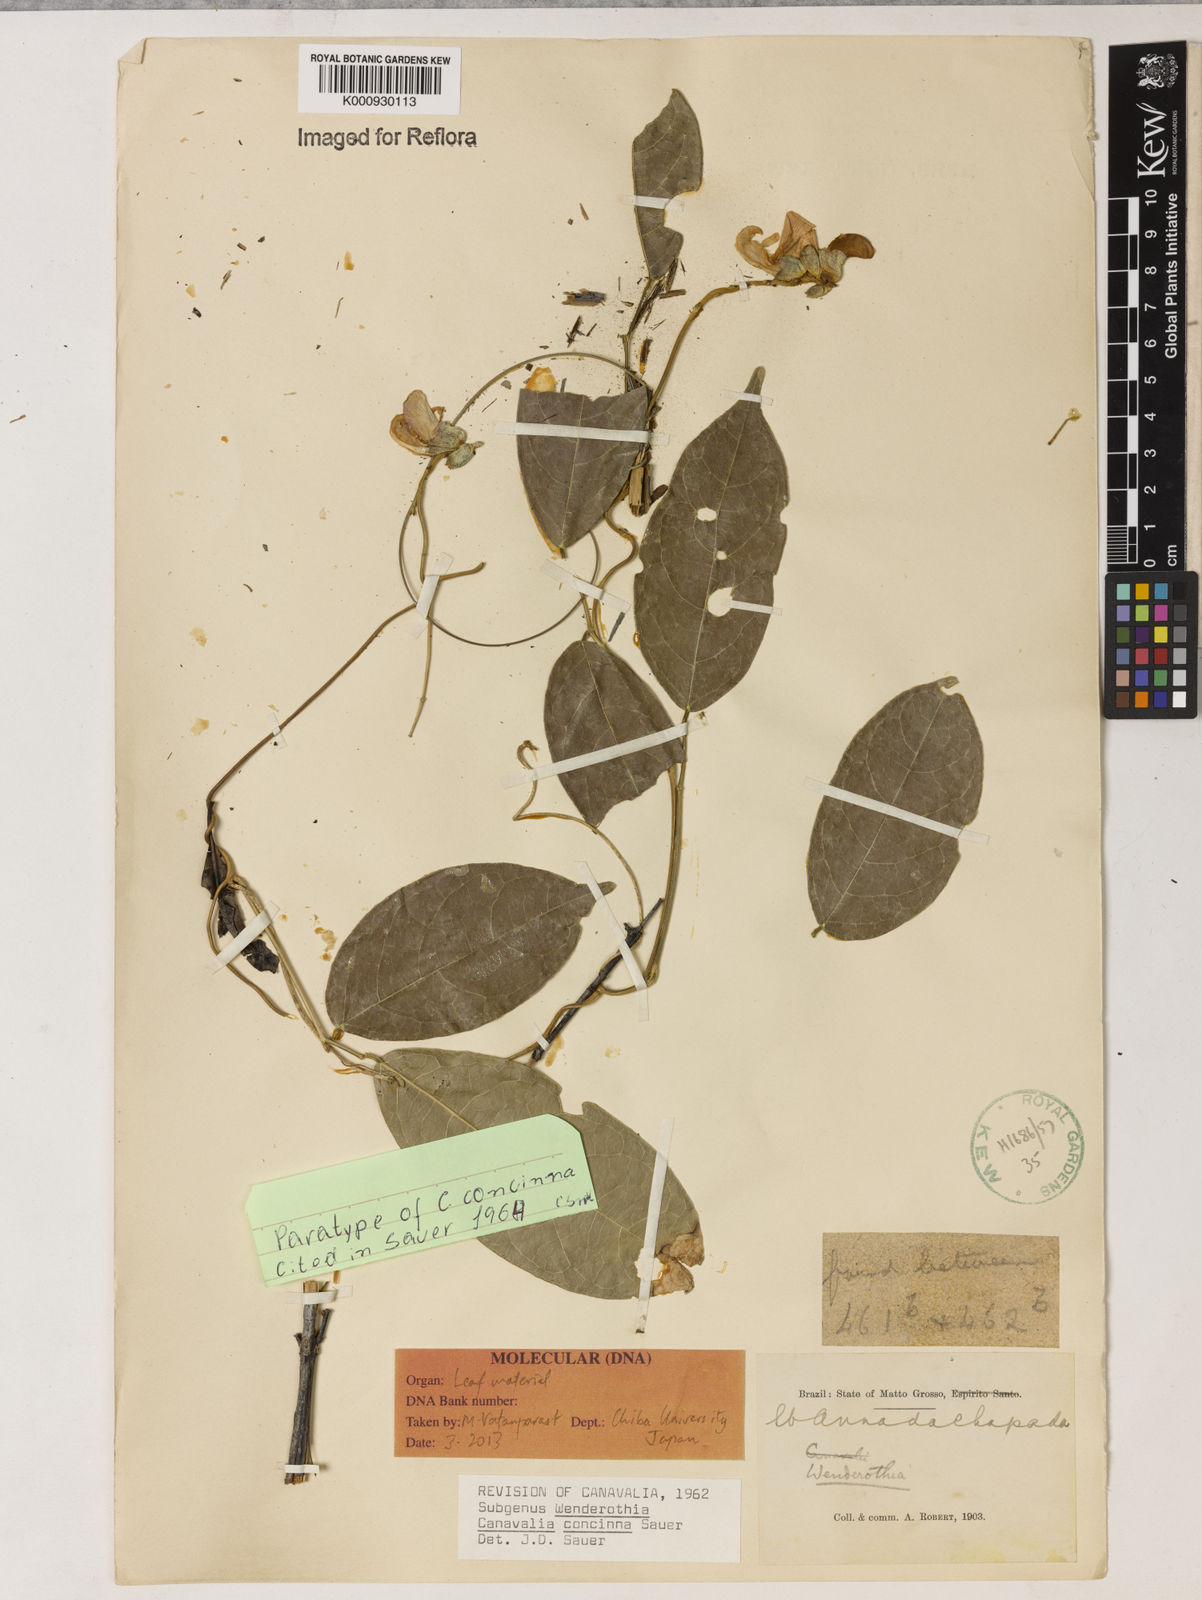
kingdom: Plantae
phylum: Tracheophyta
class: Magnoliopsida
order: Fabales
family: Fabaceae
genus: Canavalia
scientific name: Canavalia concinna
